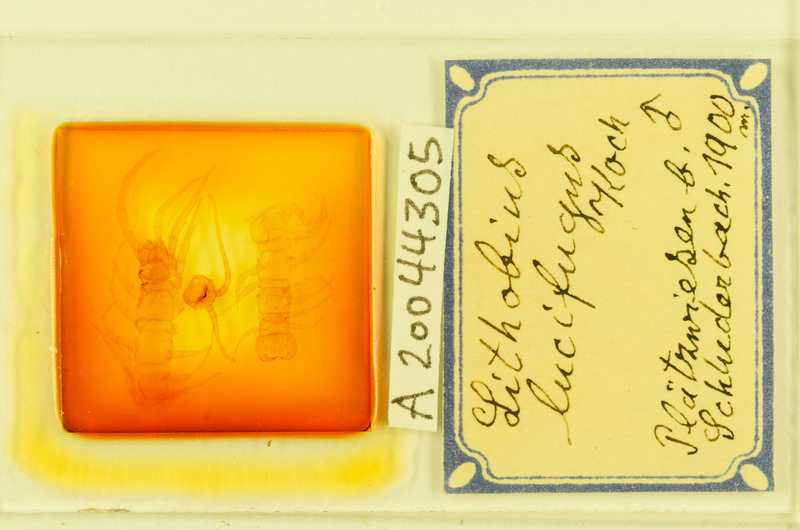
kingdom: Animalia
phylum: Arthropoda
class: Chilopoda
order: Lithobiomorpha
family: Lithobiidae
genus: Lithobius
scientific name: Lithobius lucifugus
